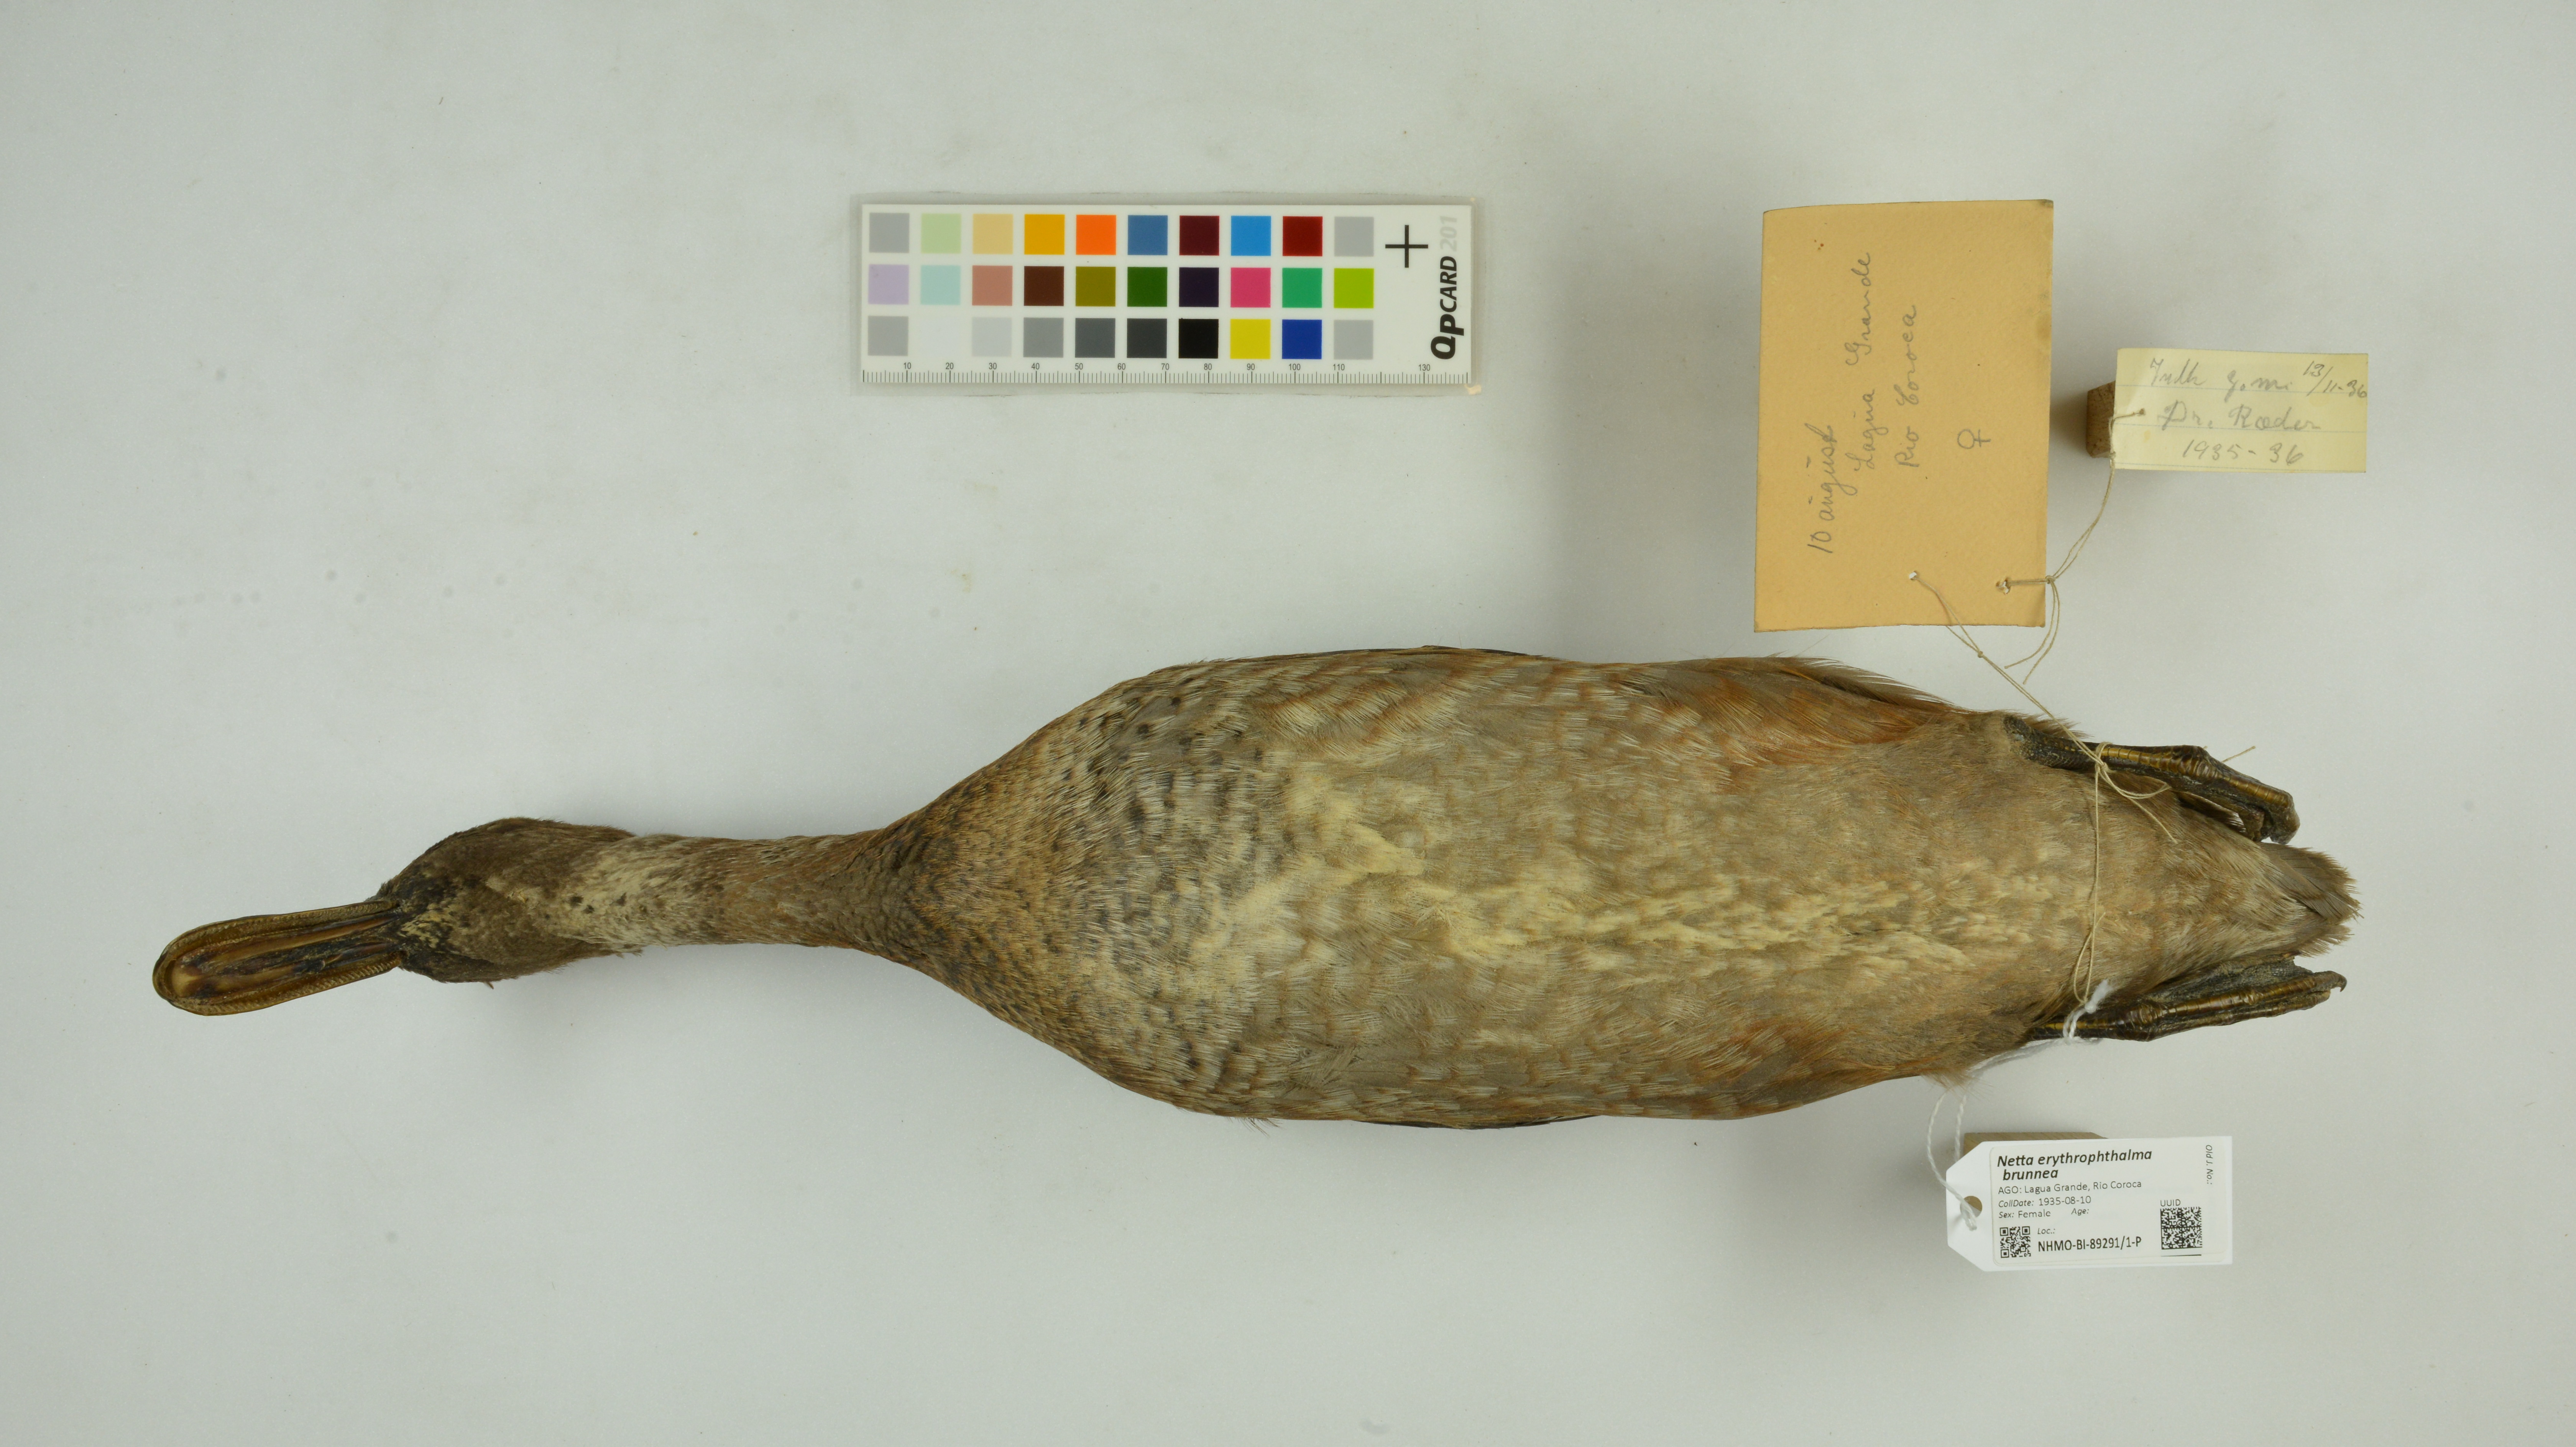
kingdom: Animalia
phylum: Chordata
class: Aves
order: Anseriformes
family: Anatidae
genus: Netta
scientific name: Netta erythrophthalma
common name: Southern pochard
